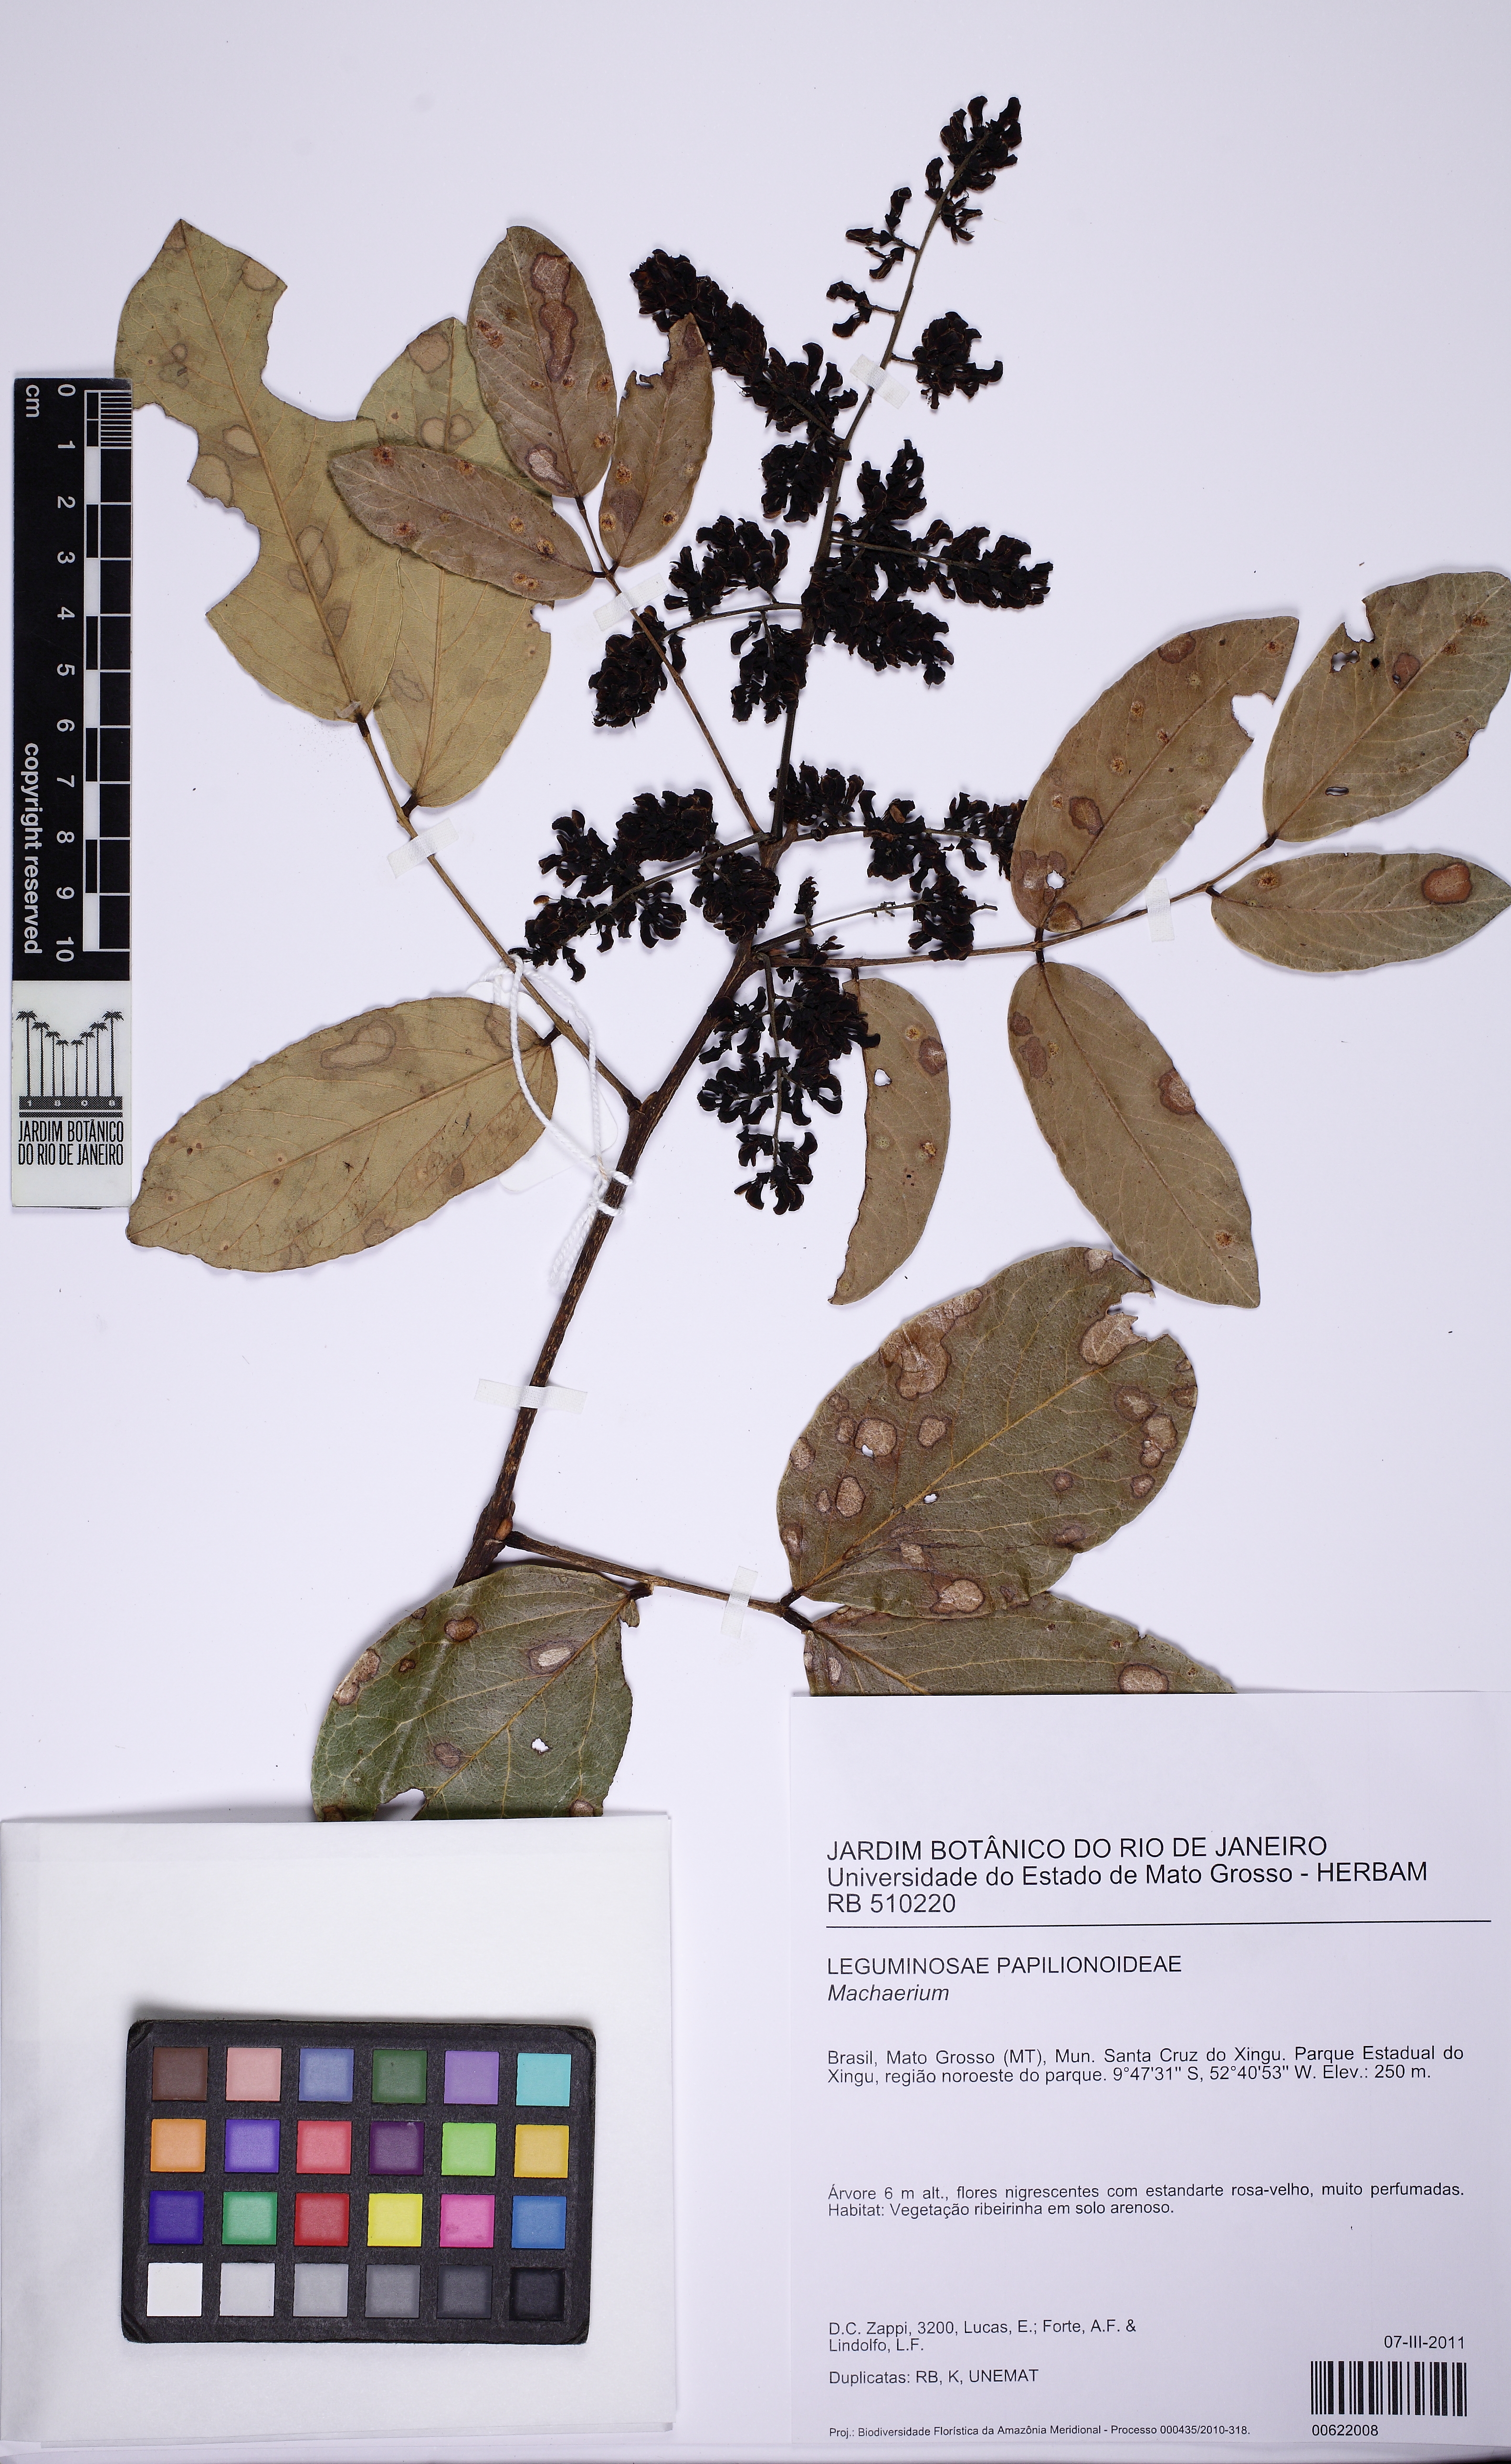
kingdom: Plantae
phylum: Tracheophyta
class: Magnoliopsida
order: Fabales
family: Fabaceae
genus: Andira
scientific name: Andira
